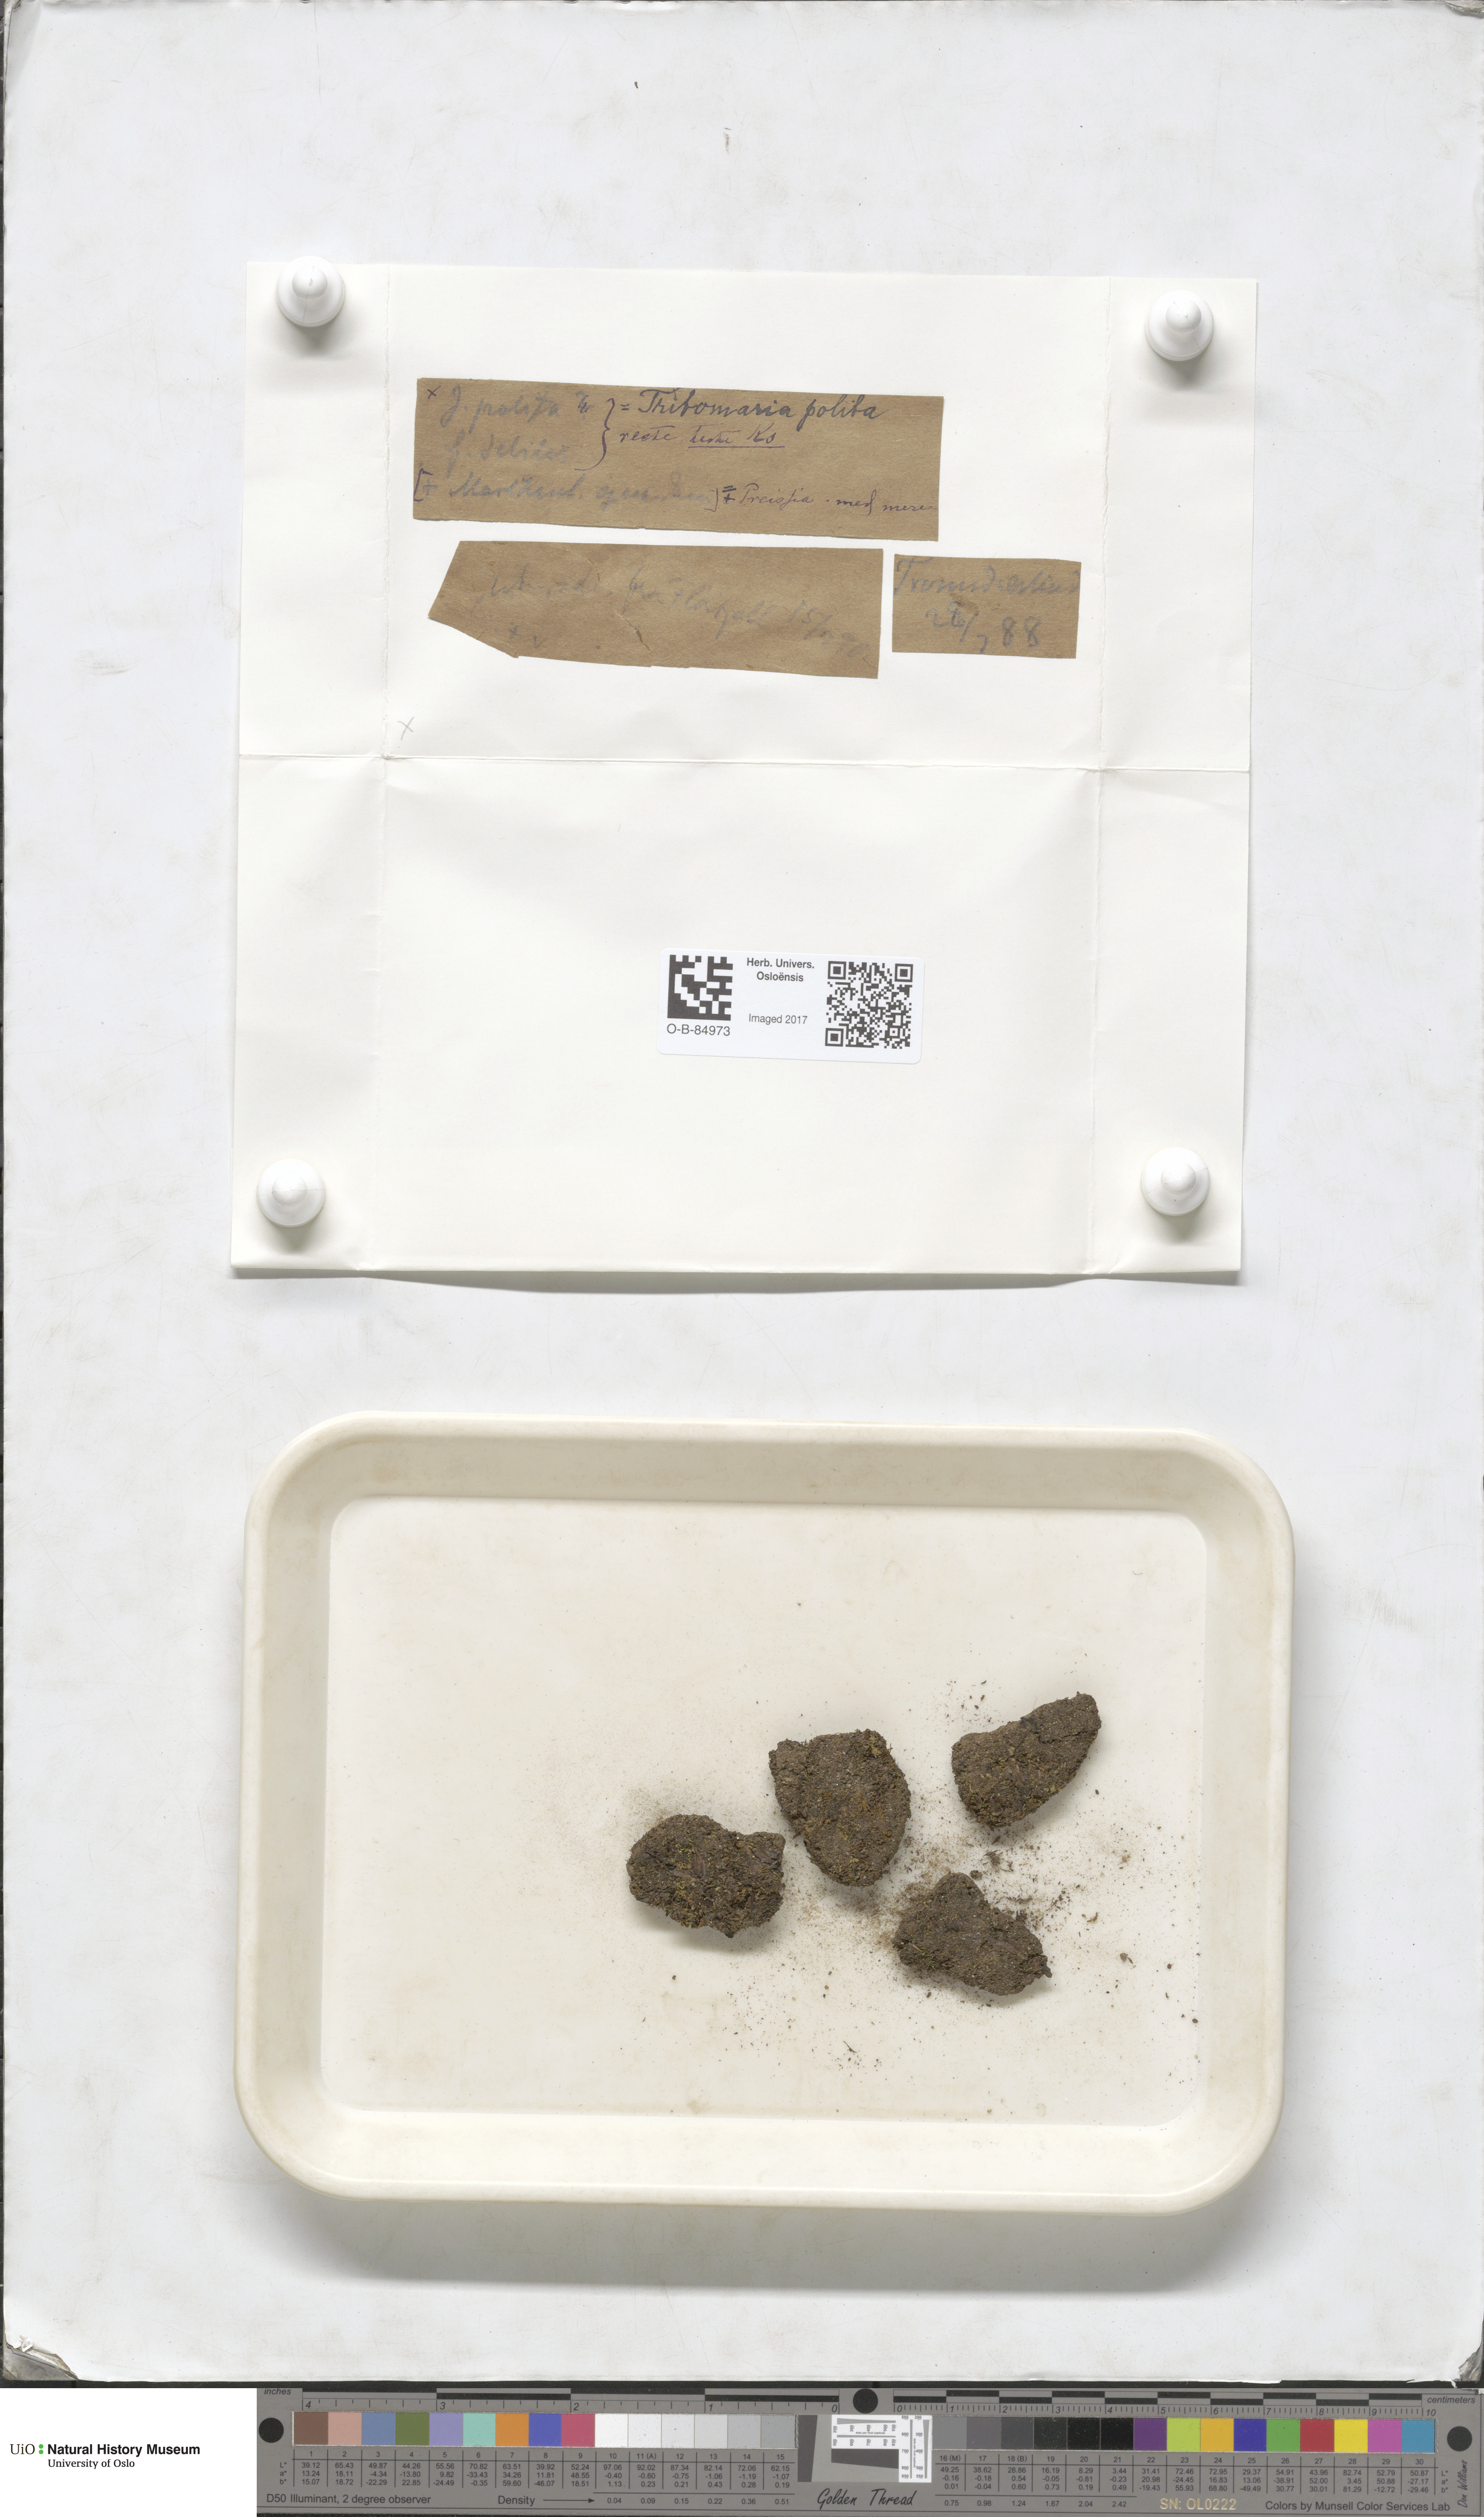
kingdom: Plantae
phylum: Marchantiophyta
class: Jungermanniopsida
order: Jungermanniales
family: Scapaniaceae
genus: Saccobasis
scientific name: Saccobasis polita
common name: Flush notchwort
